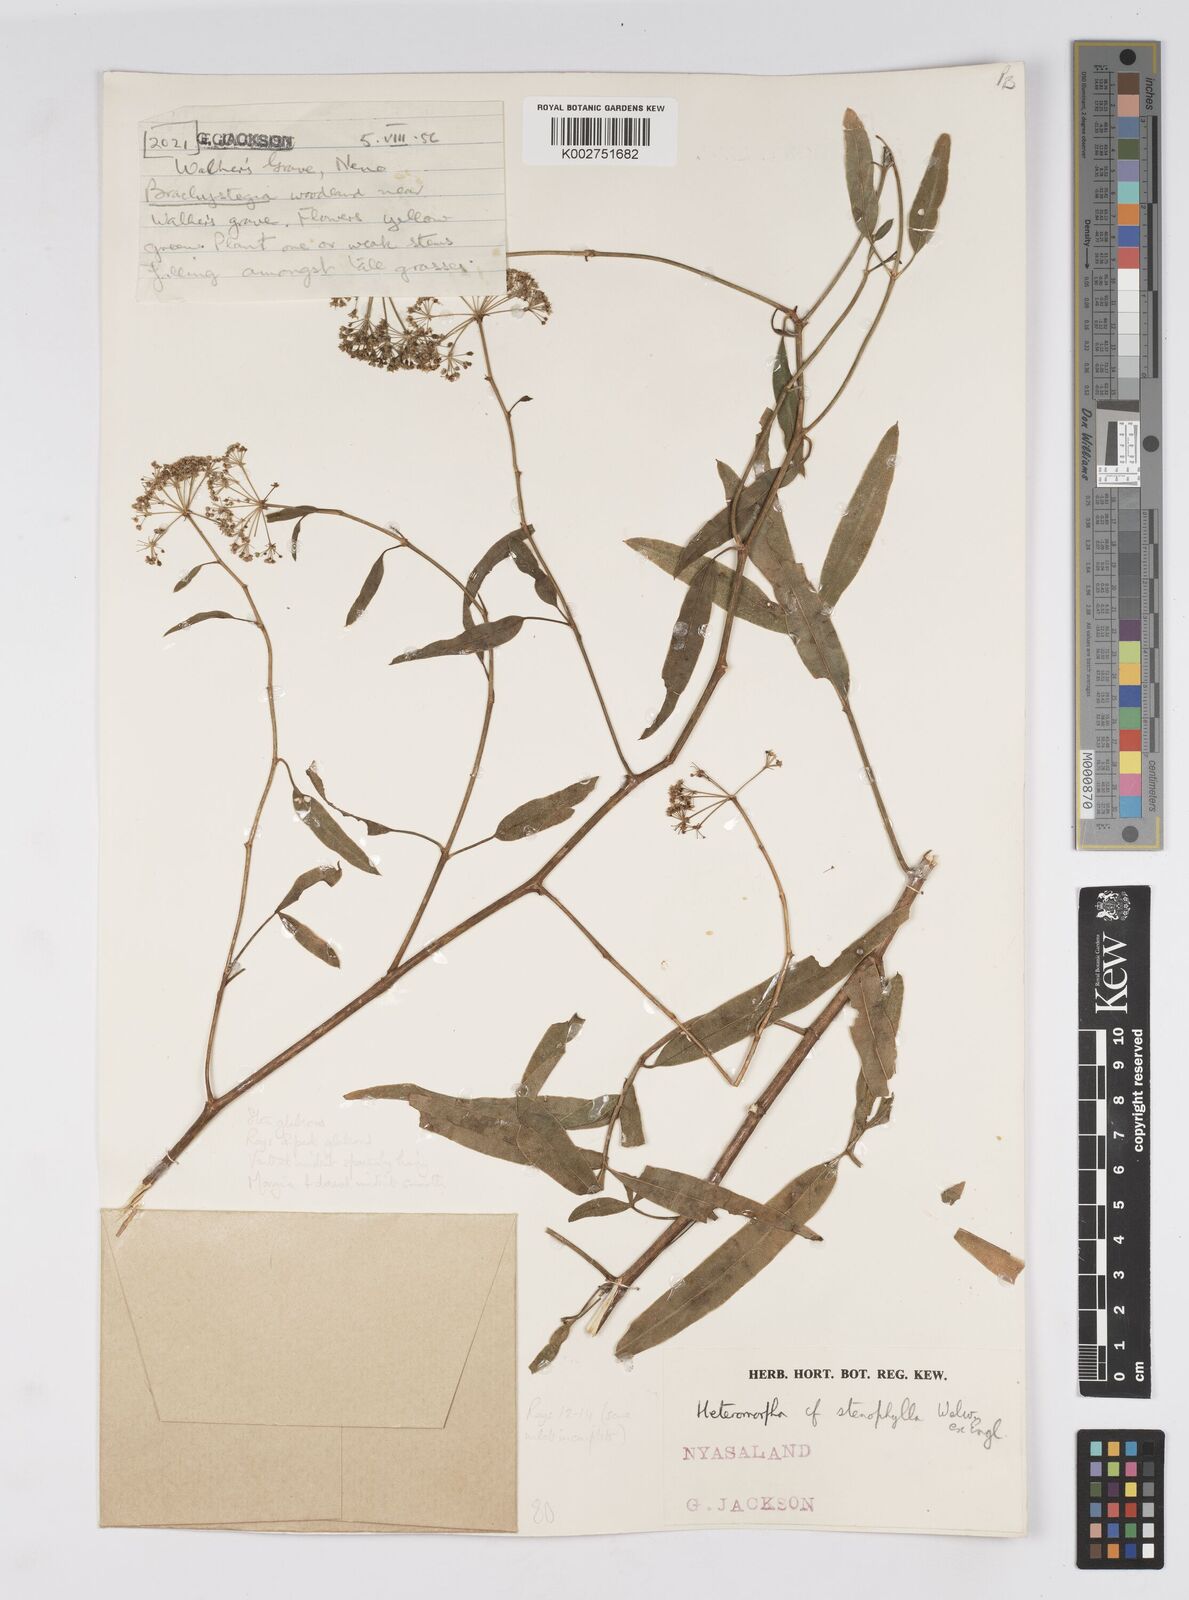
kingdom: Plantae
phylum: Tracheophyta
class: Magnoliopsida
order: Apiales
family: Apiaceae
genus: Heteromorpha
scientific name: Heteromorpha stenophylla
